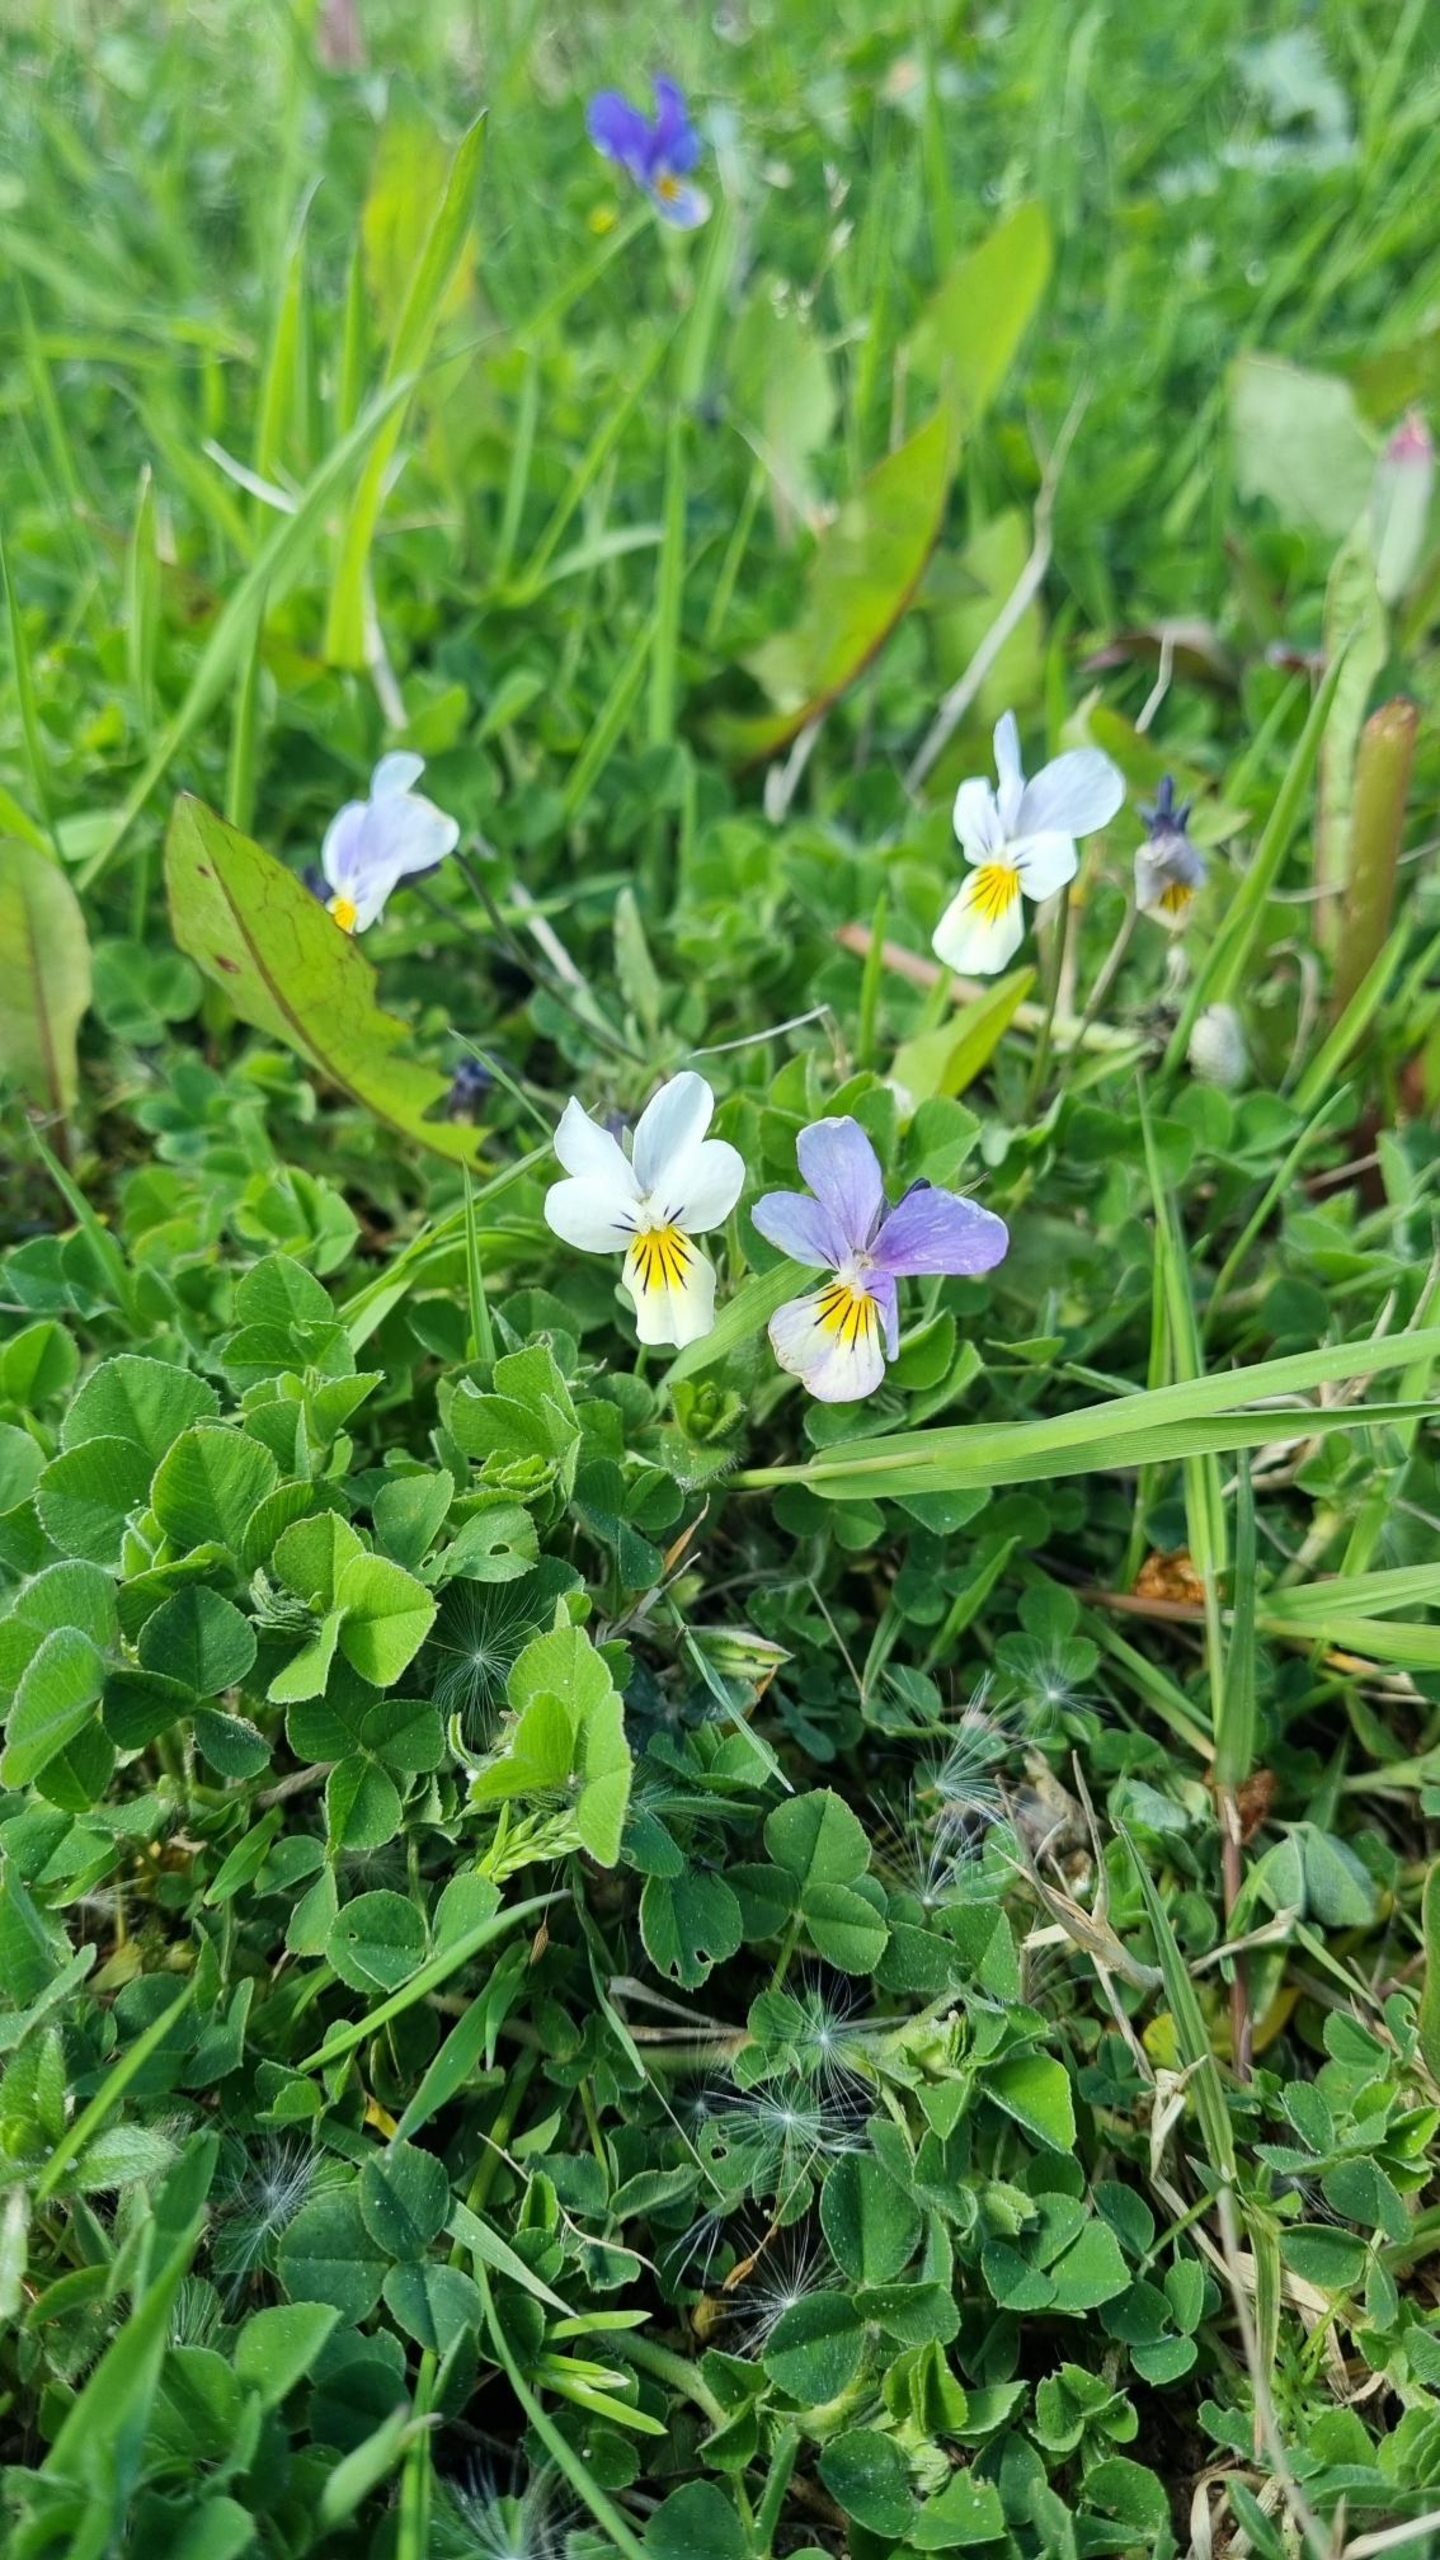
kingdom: Plantae
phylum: Tracheophyta
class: Magnoliopsida
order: Malpighiales
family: Violaceae
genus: Viola
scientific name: Viola tricolor
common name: Stedmoderblomst
